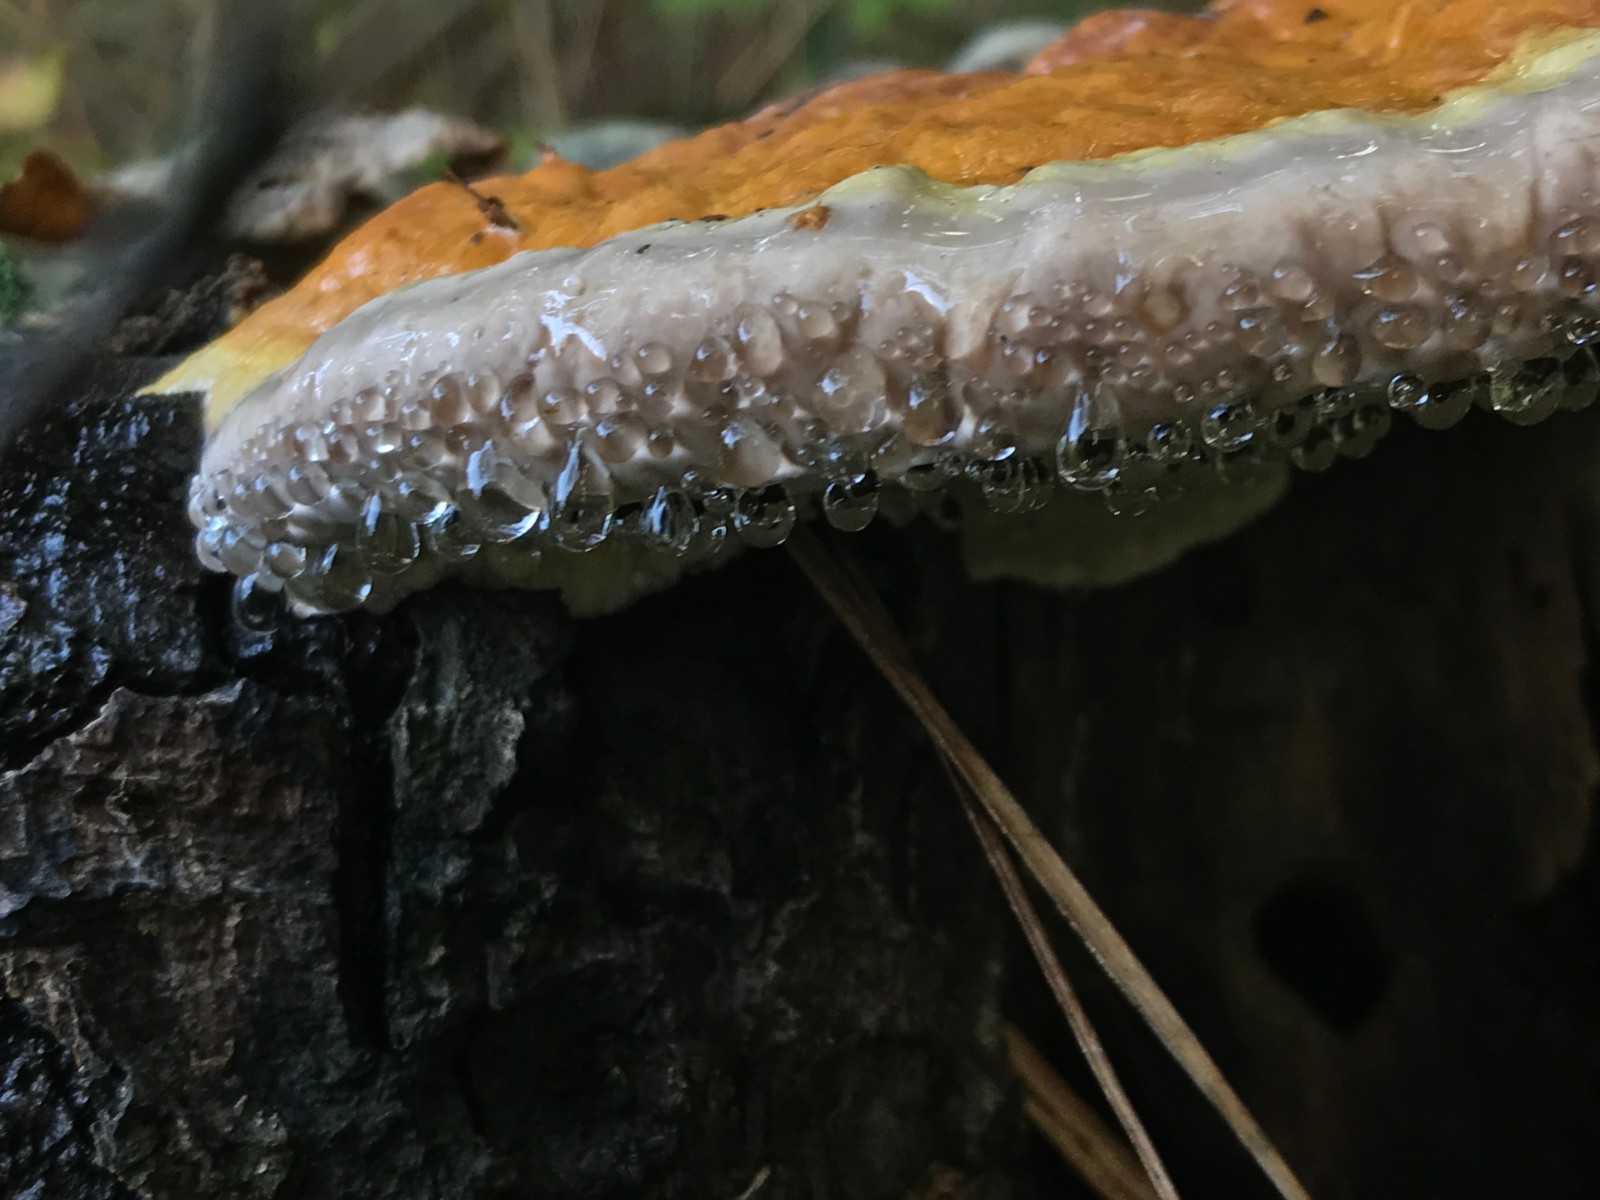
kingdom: Fungi
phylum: Basidiomycota
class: Agaricomycetes
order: Polyporales
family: Fomitopsidaceae
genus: Fomitopsis
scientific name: Fomitopsis pinicola
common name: randbæltet hovporesvamp
